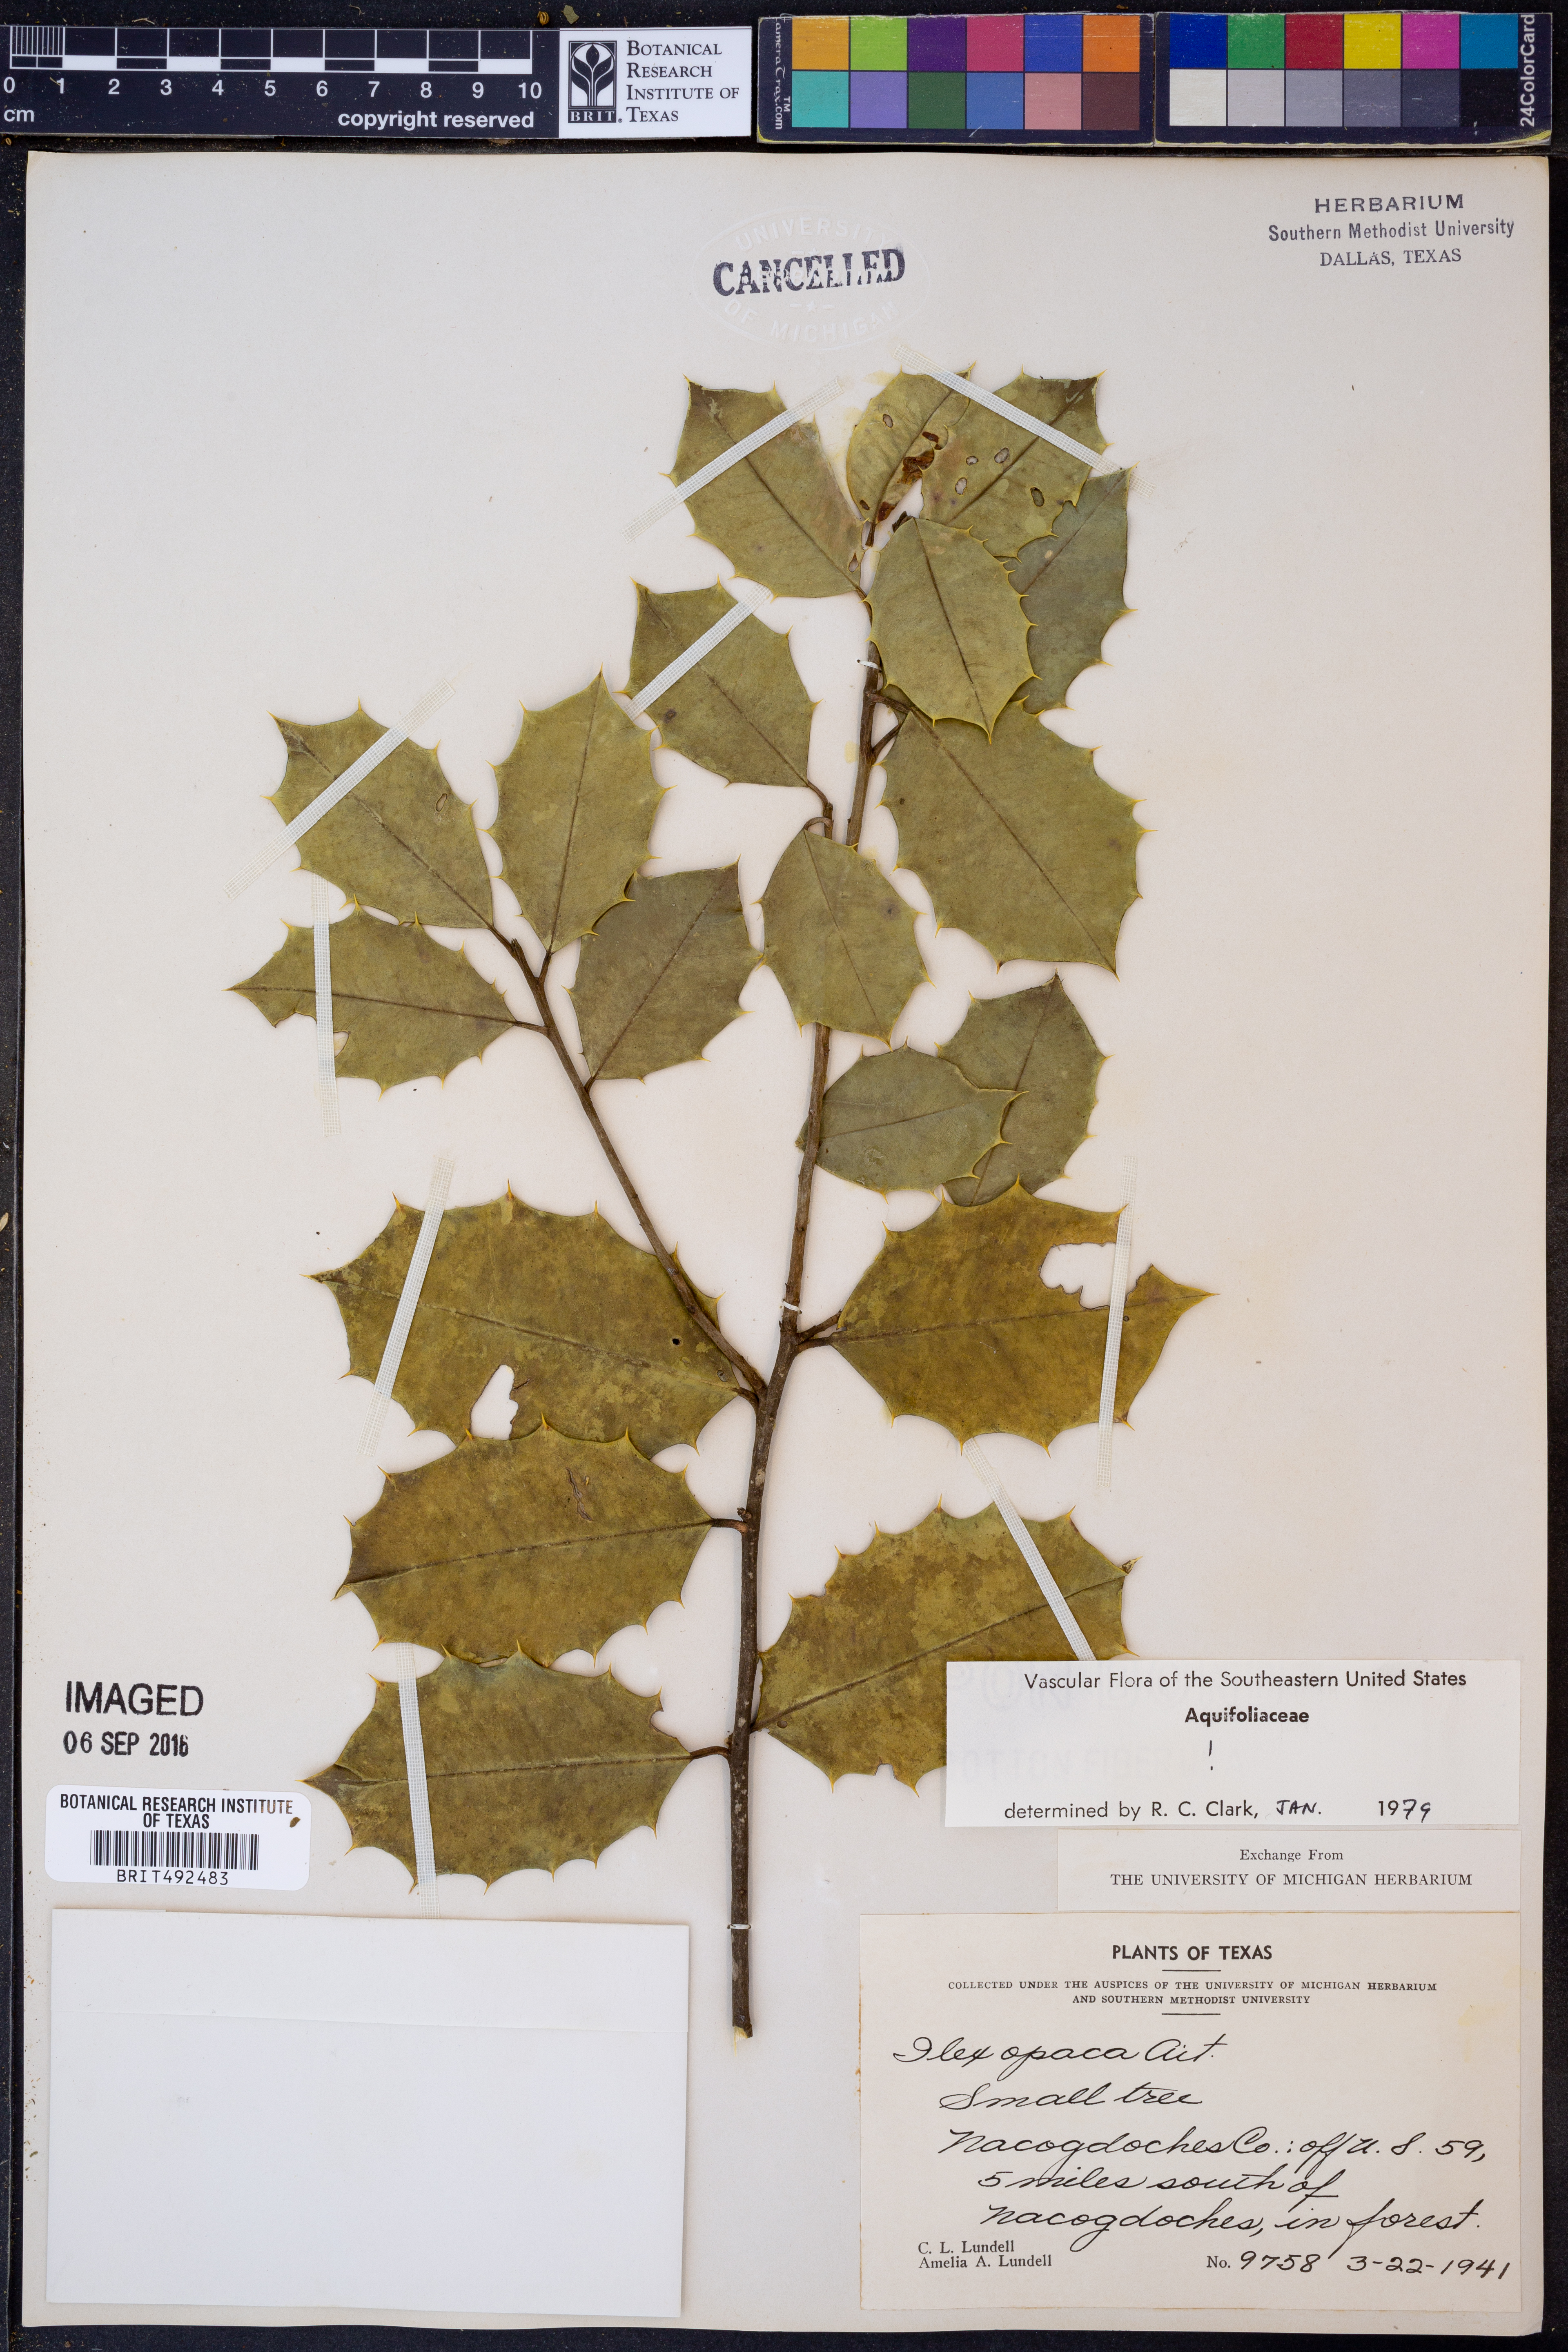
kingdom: Plantae
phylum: Tracheophyta
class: Magnoliopsida
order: Aquifoliales
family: Aquifoliaceae
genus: Ilex
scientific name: Ilex opaca
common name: American holly
